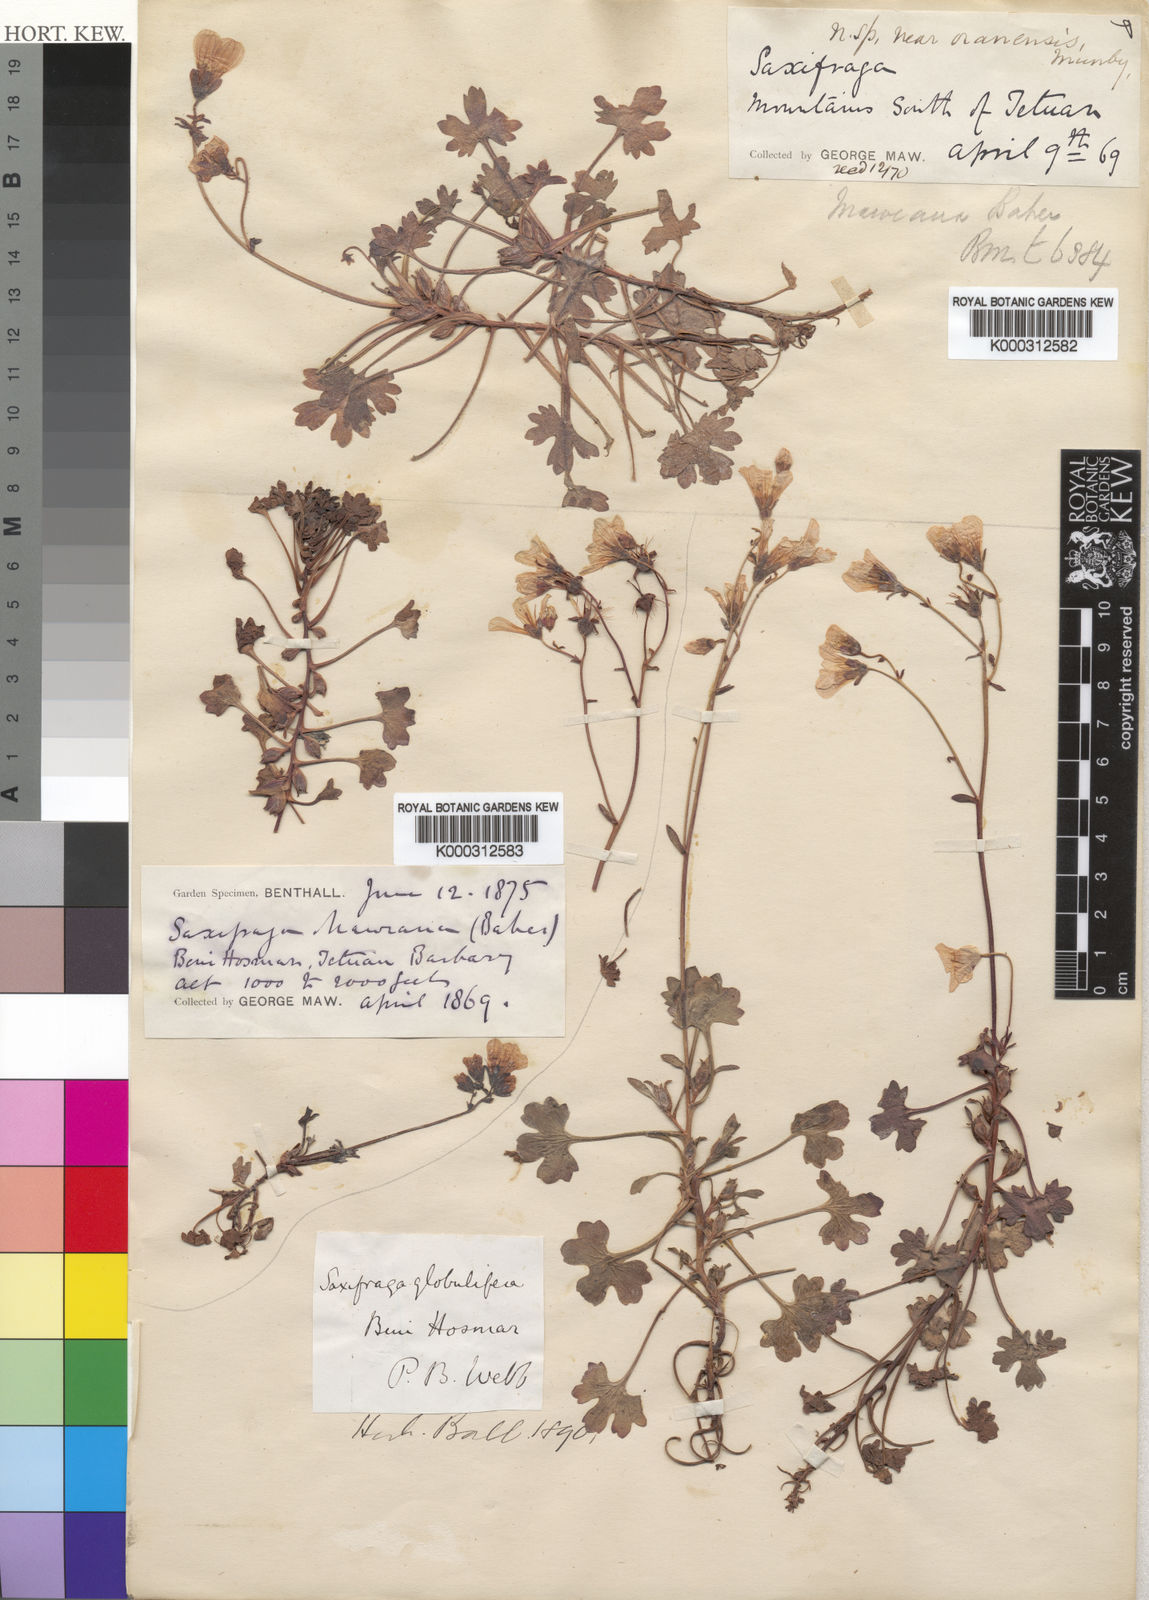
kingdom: Plantae
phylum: Tracheophyta
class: Magnoliopsida
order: Saxifragales
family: Saxifragaceae
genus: Saxifraga
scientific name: Saxifraga maweana
